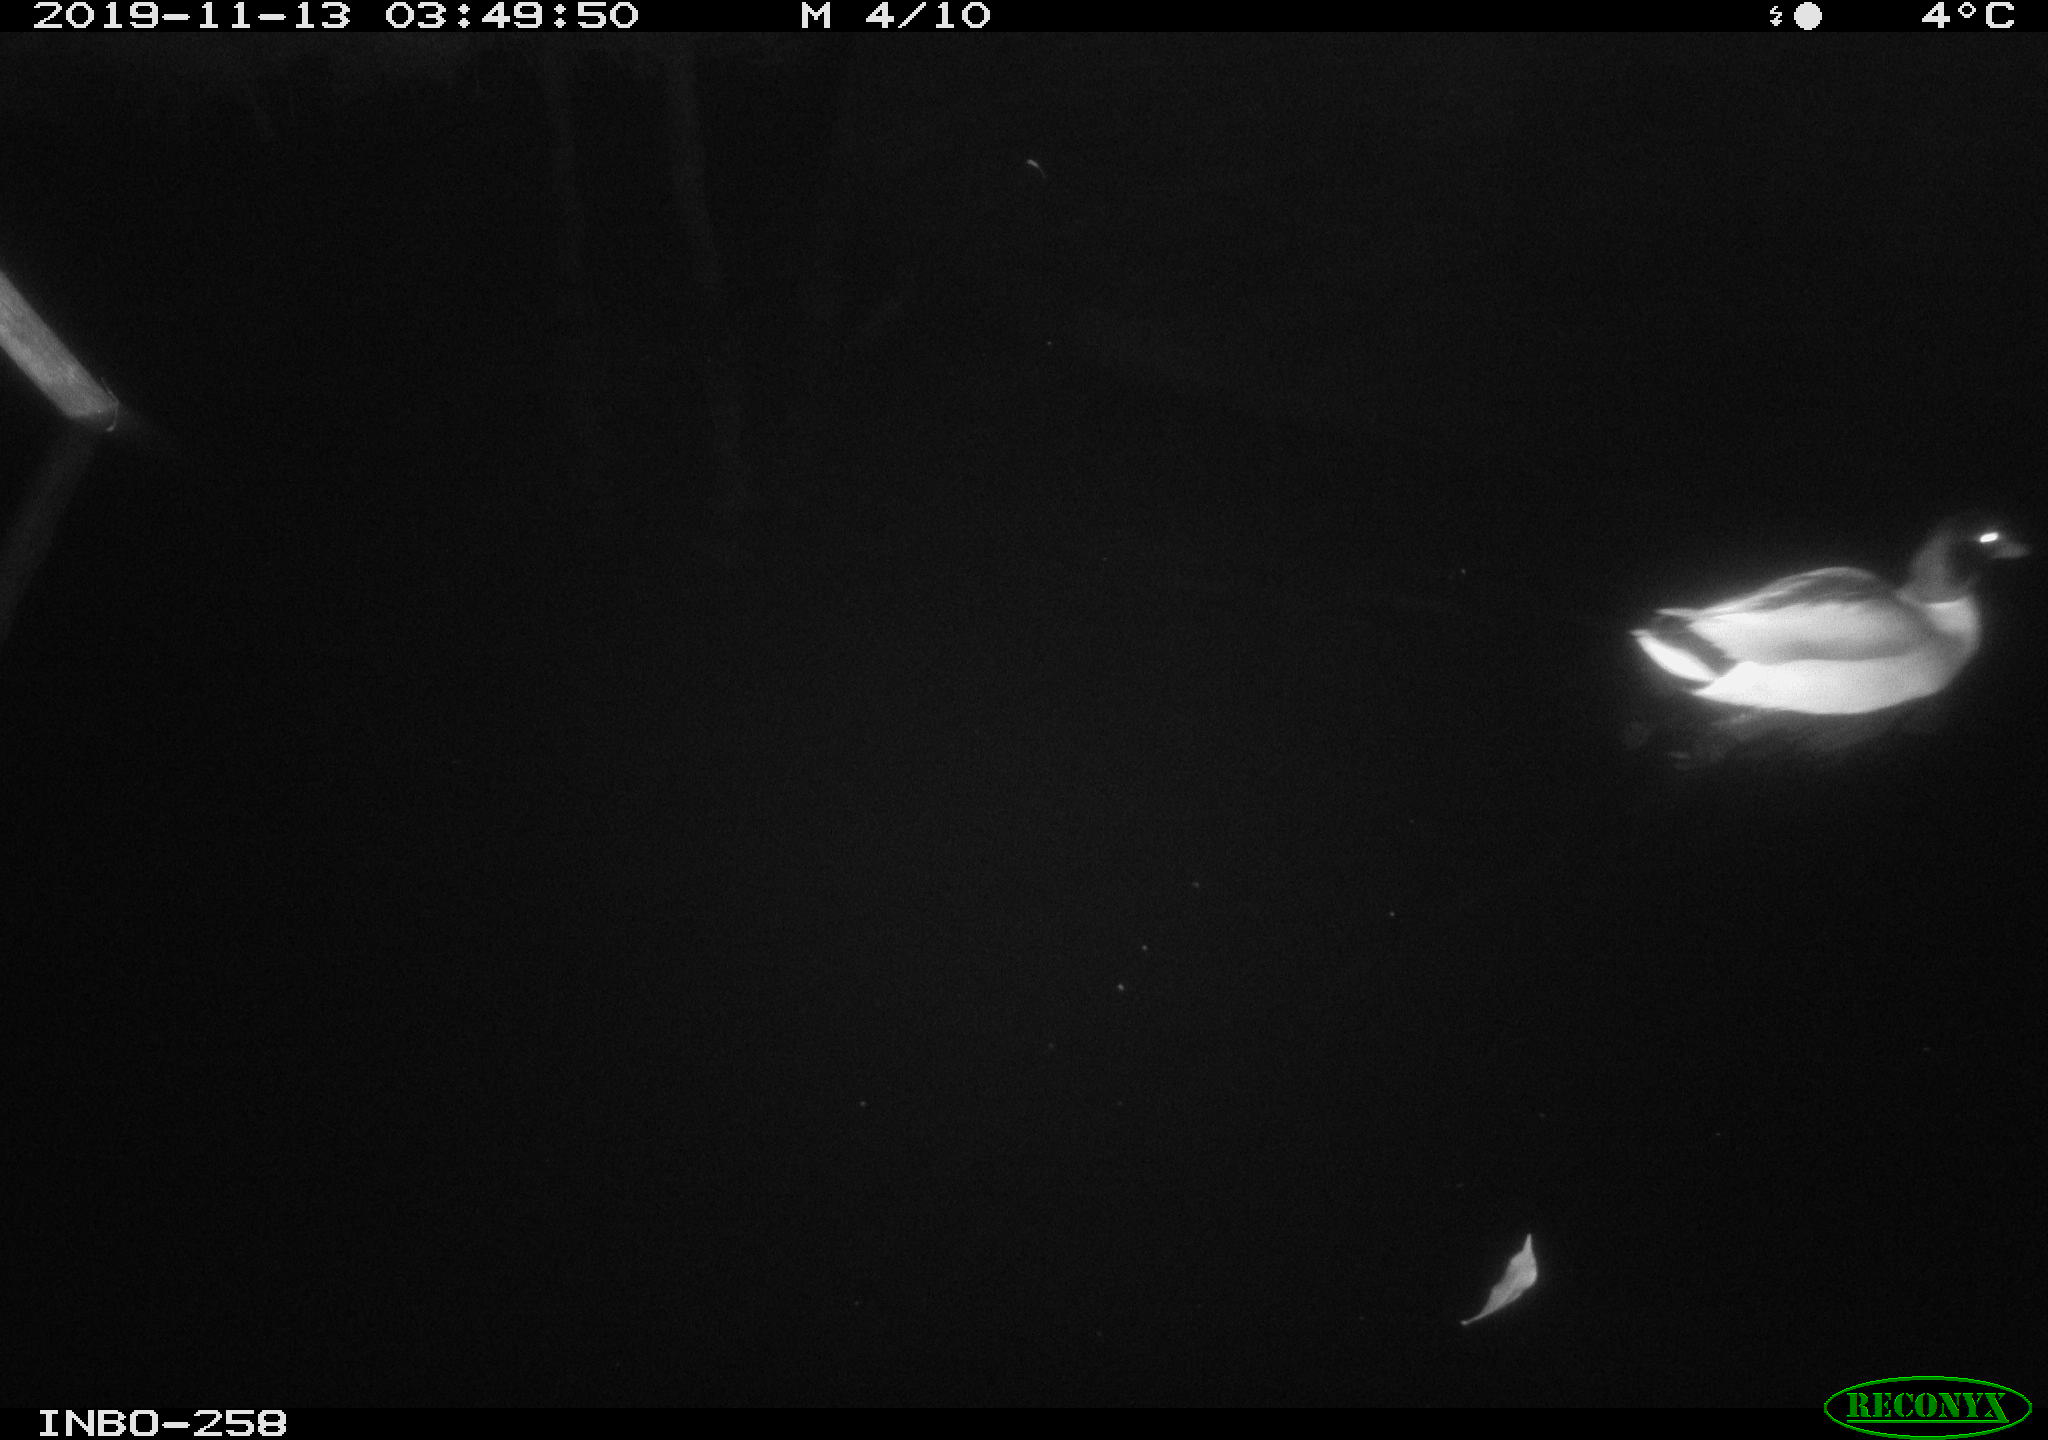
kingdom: Animalia
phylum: Chordata
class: Aves
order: Anseriformes
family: Anatidae
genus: Anas
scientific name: Anas platyrhynchos
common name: Mallard
